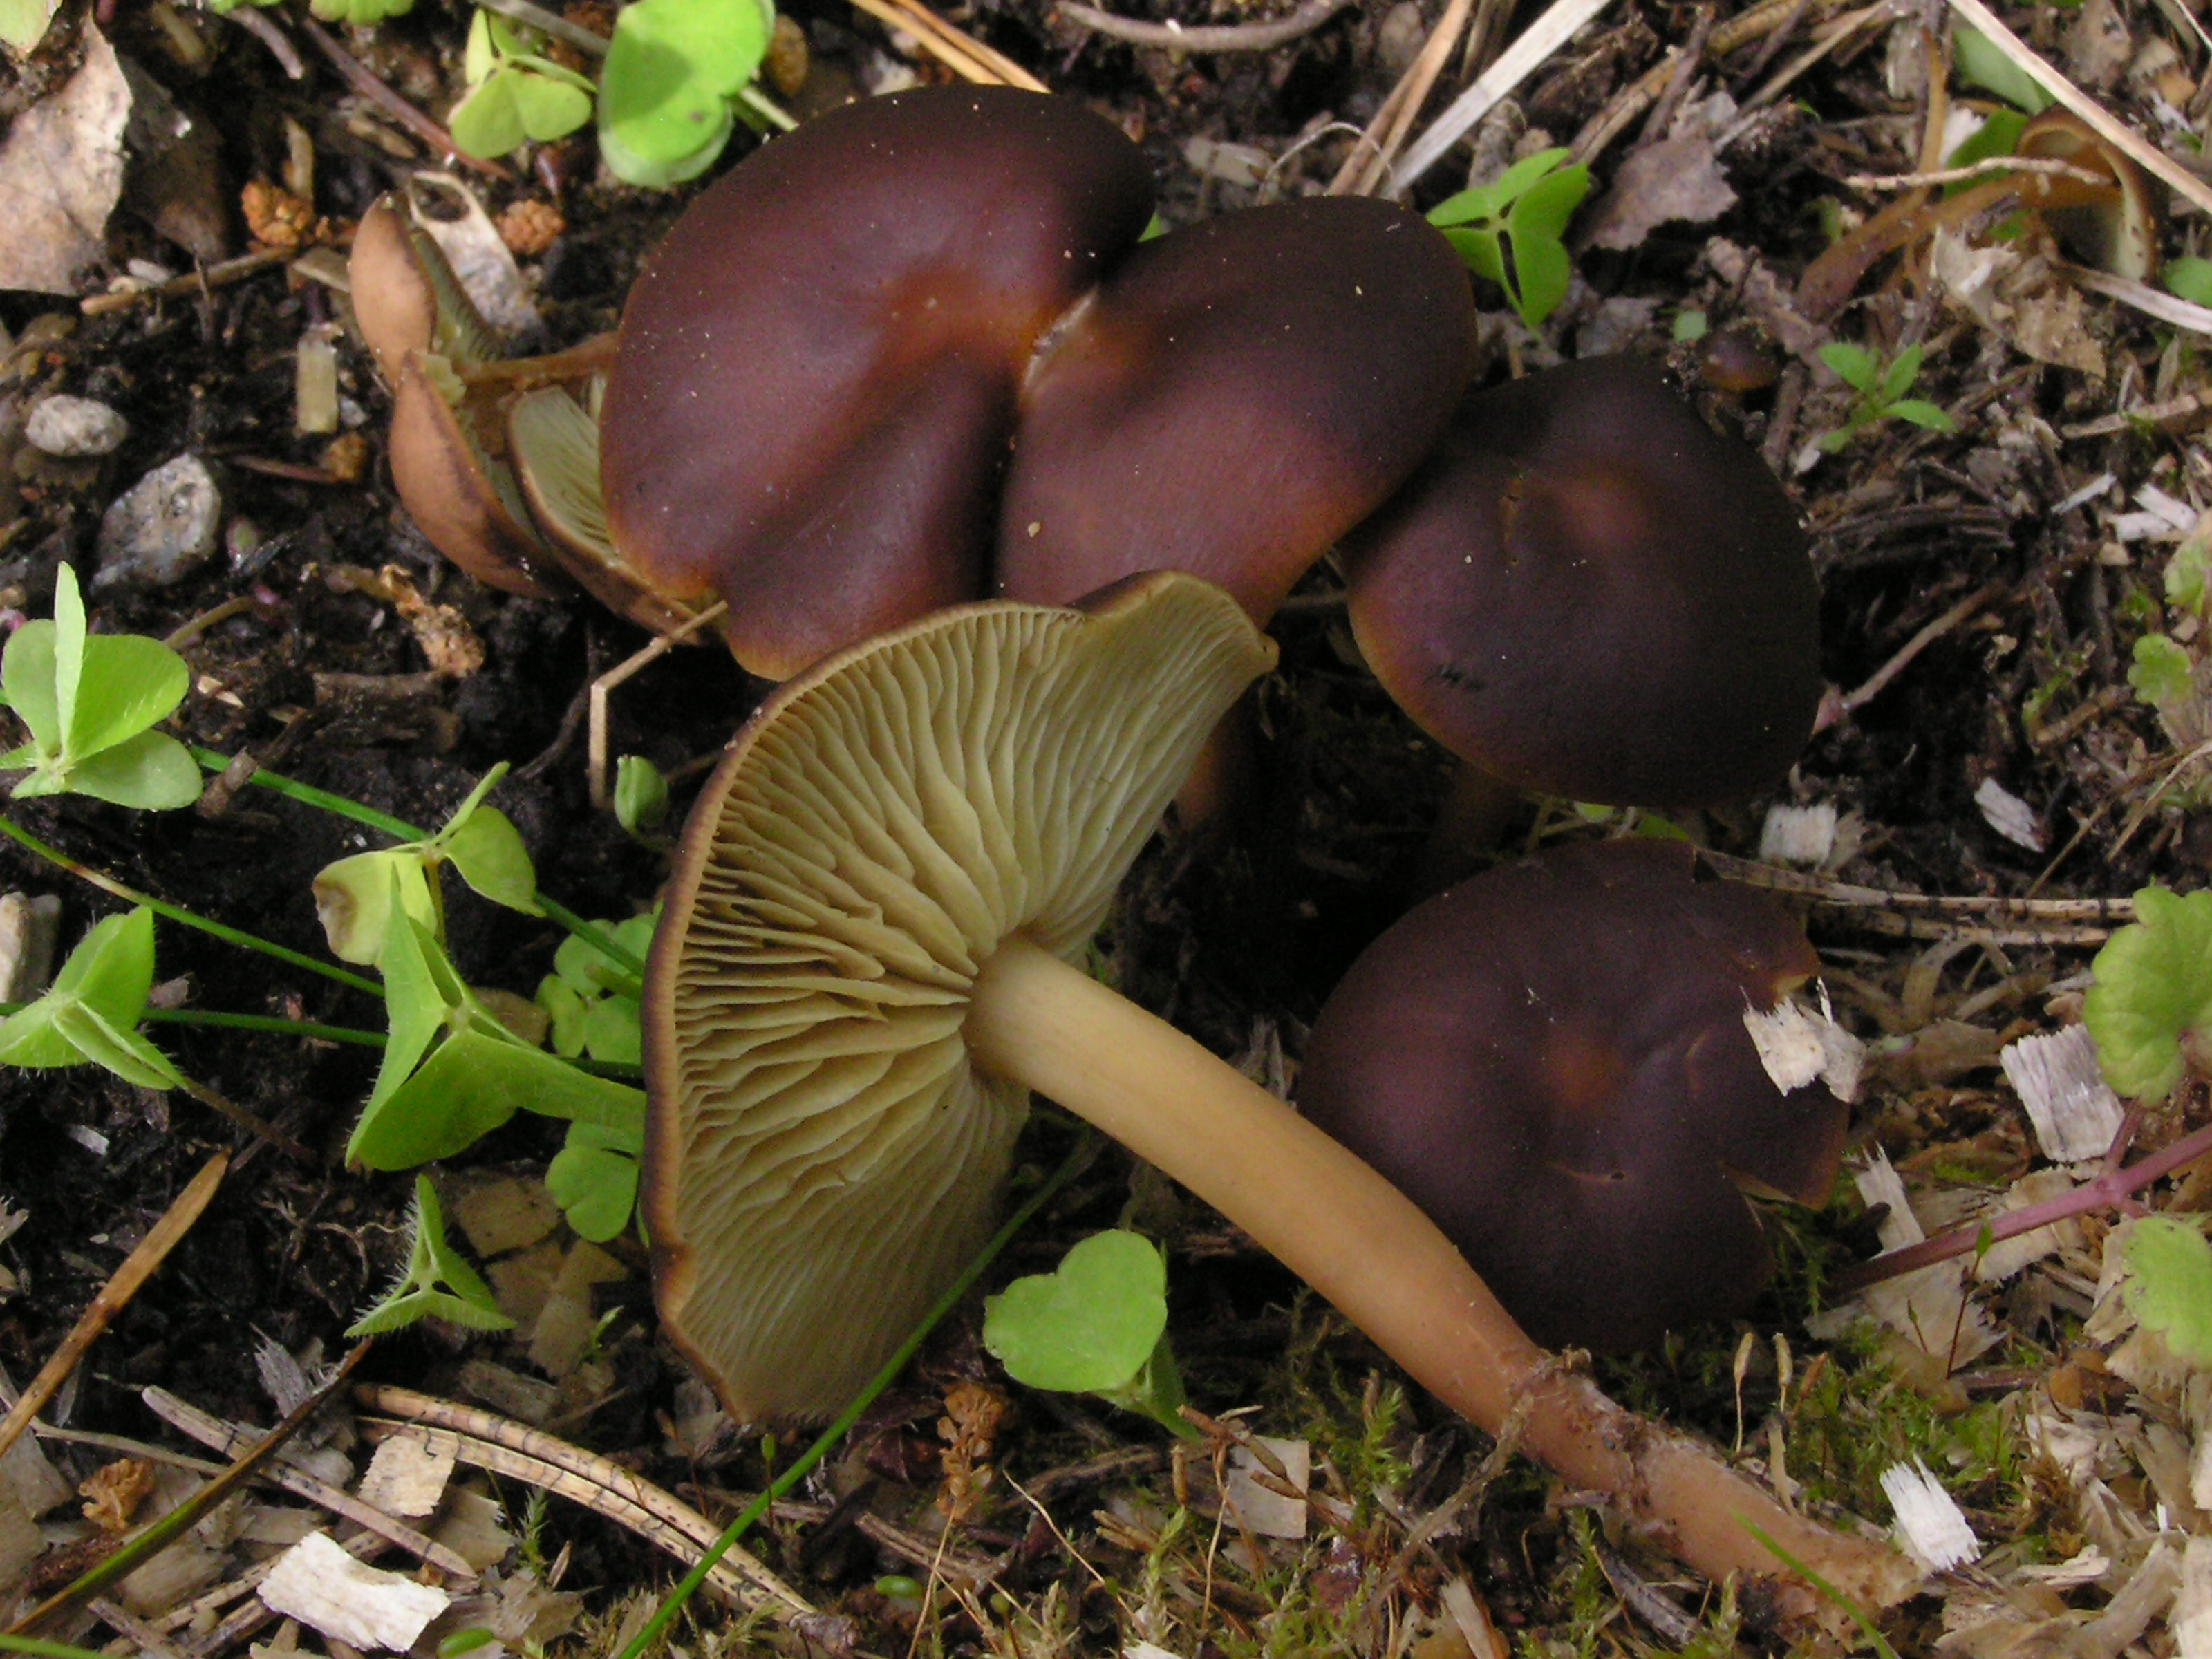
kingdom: Fungi
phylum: Basidiomycota
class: Agaricomycetes
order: Agaricales
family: Omphalotaceae
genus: Gymnopus
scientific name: Gymnopus ocior
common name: Spring toughshank
